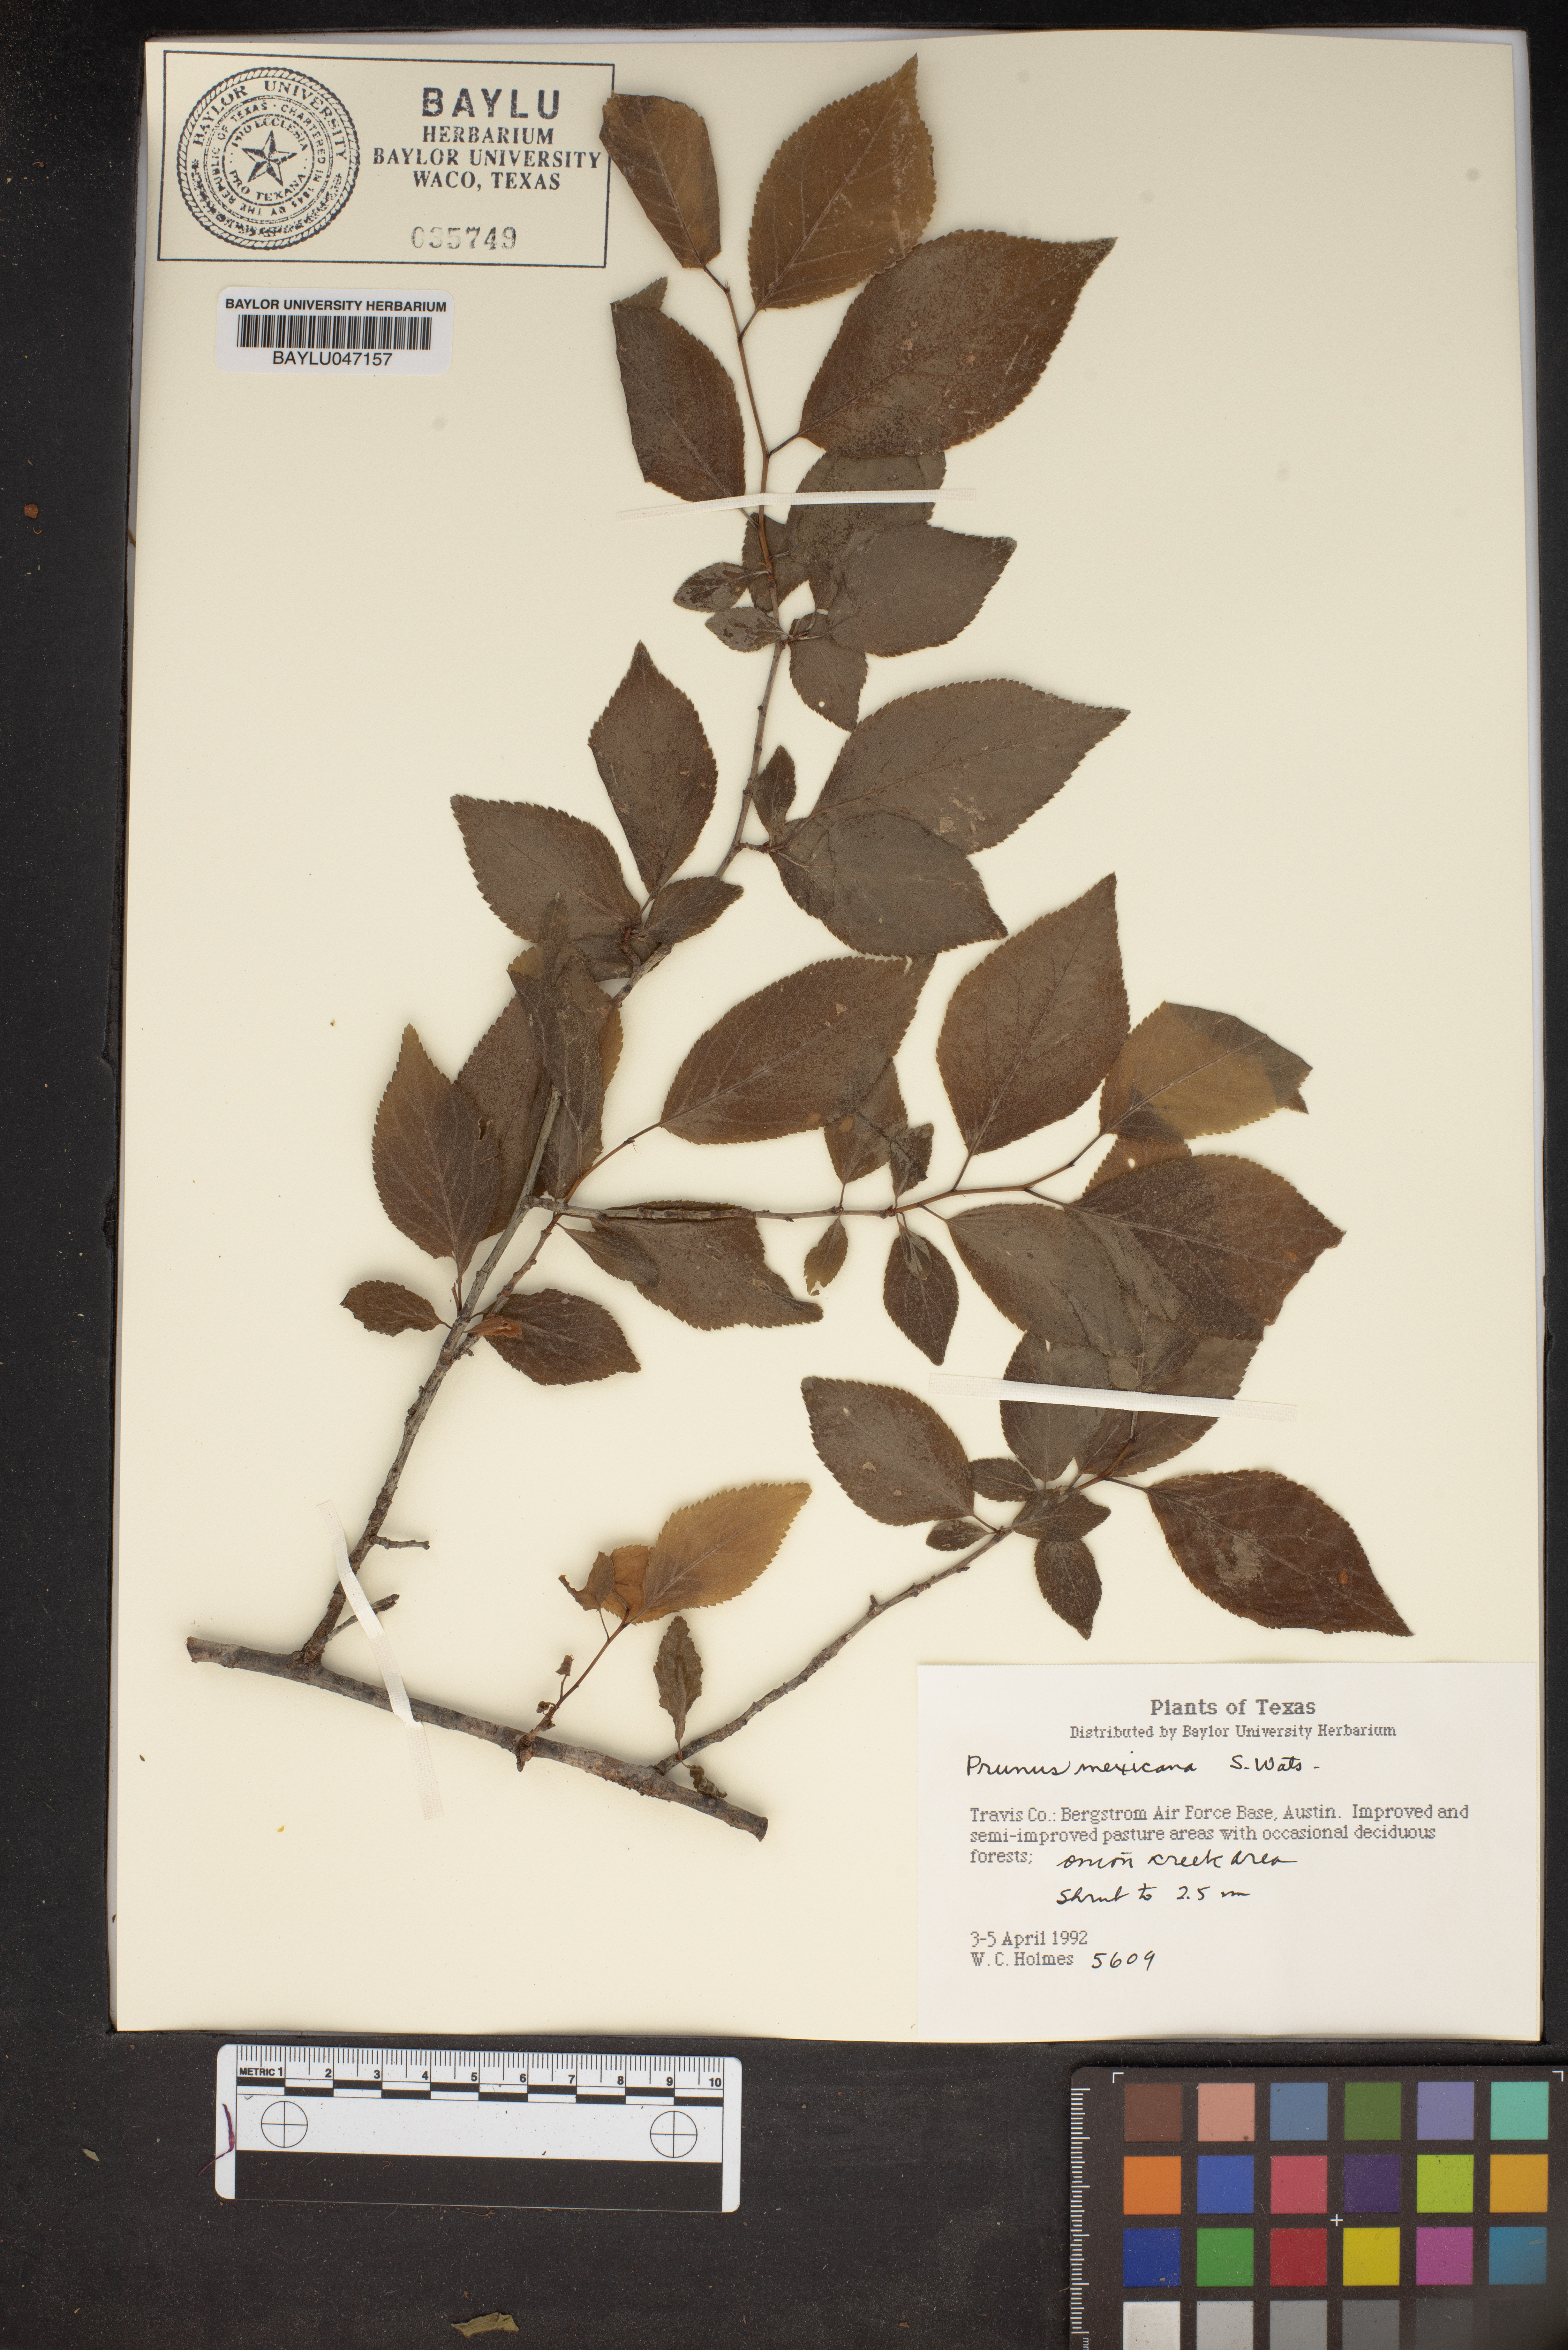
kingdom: Plantae
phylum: Tracheophyta
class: Magnoliopsida
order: Rosales
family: Rosaceae
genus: Prunus
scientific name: Prunus mexicana
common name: Mexican plum
